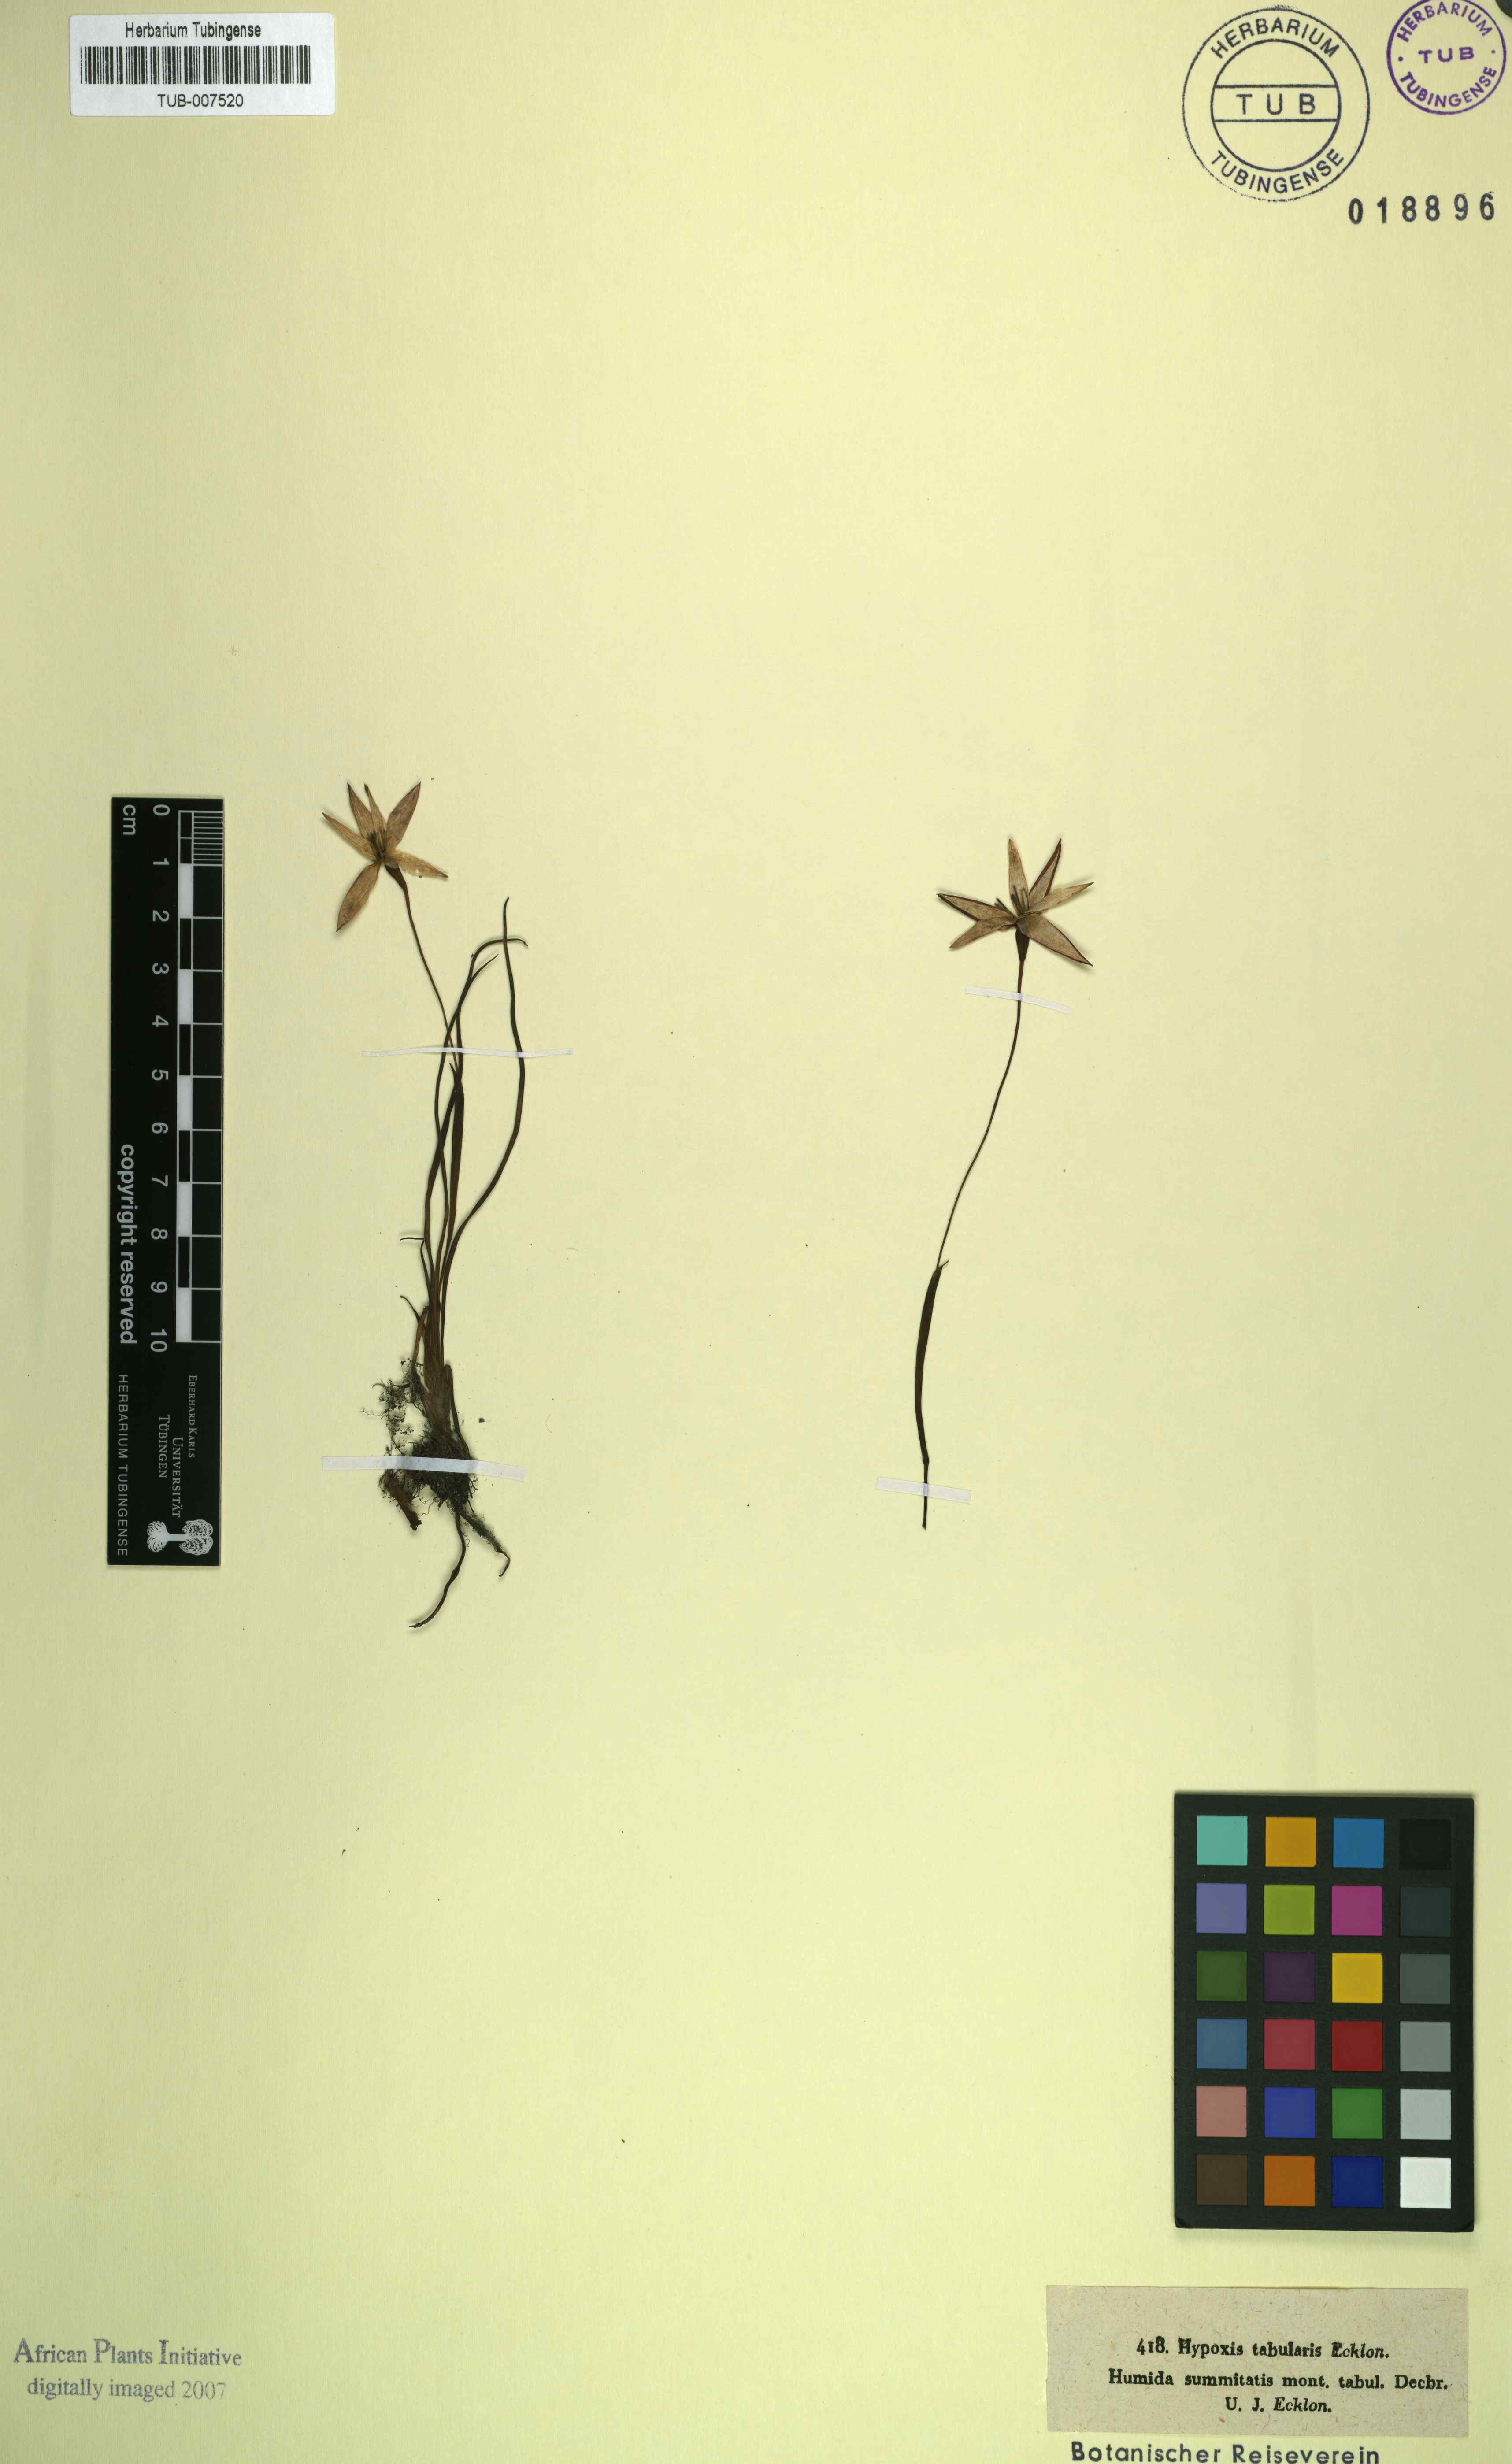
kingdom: Plantae
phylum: Tracheophyta
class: Liliopsida
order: Asparagales
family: Hypoxidaceae
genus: Pauridia
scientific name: Pauridia capensis
